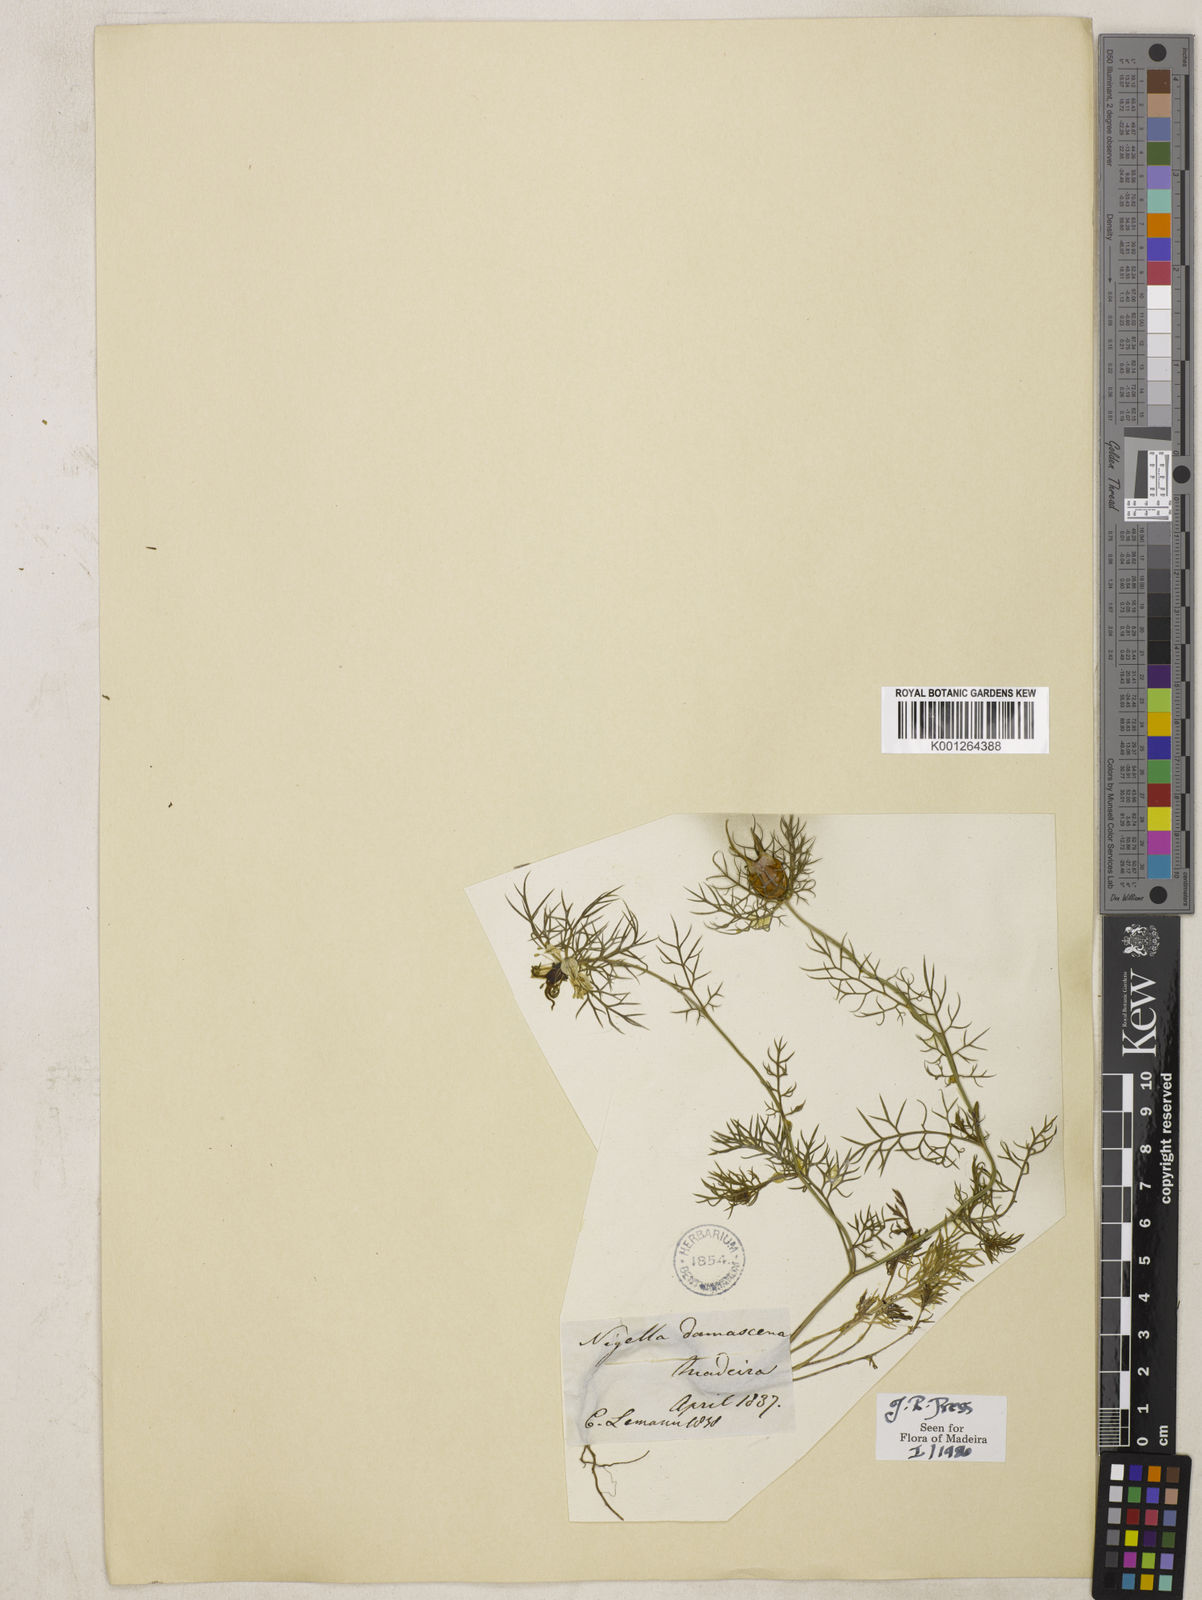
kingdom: Plantae
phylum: Tracheophyta
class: Magnoliopsida
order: Ranunculales
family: Ranunculaceae
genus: Nigella
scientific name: Nigella damascena
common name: Love-in-a-mist
